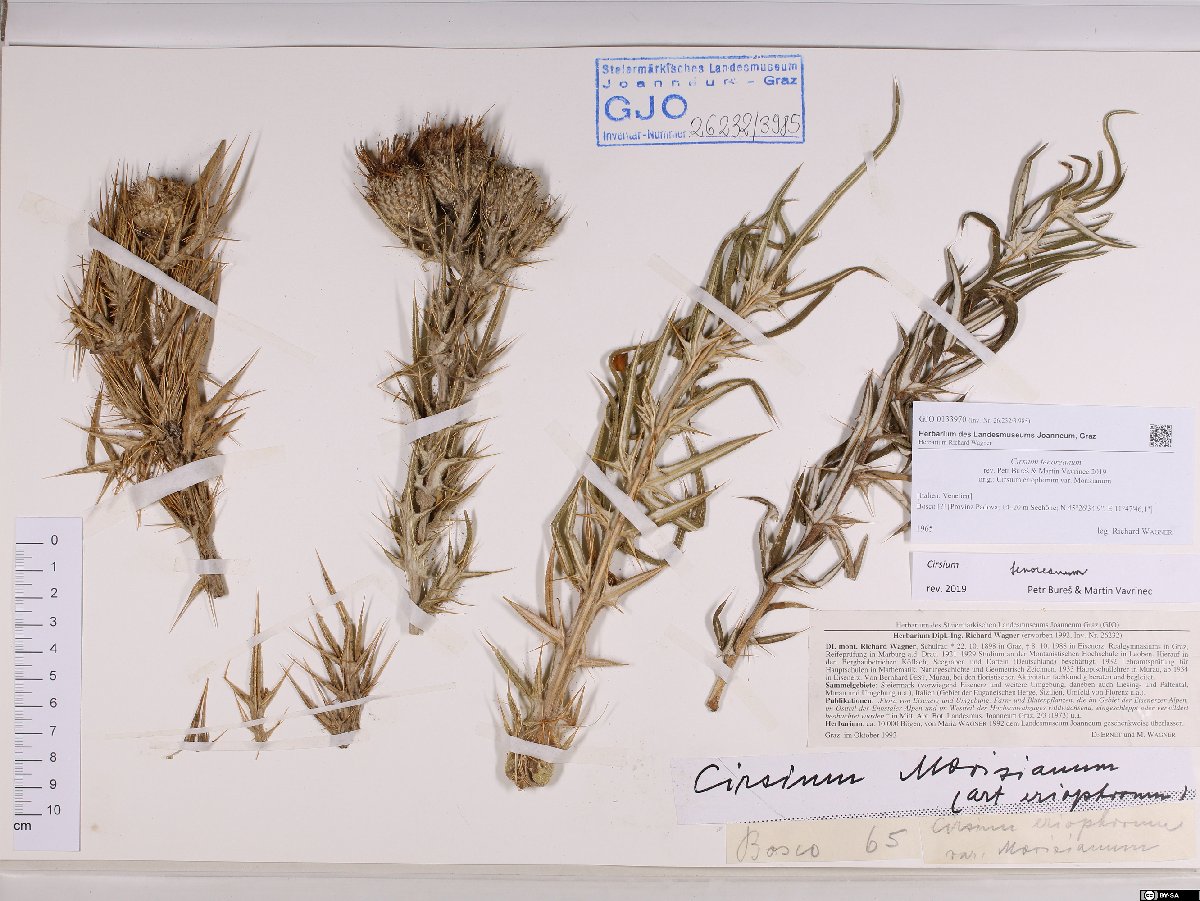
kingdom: Plantae
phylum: Tracheophyta
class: Magnoliopsida
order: Asterales
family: Asteraceae
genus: Lophiolepis
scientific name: Lophiolepis tenoreana
